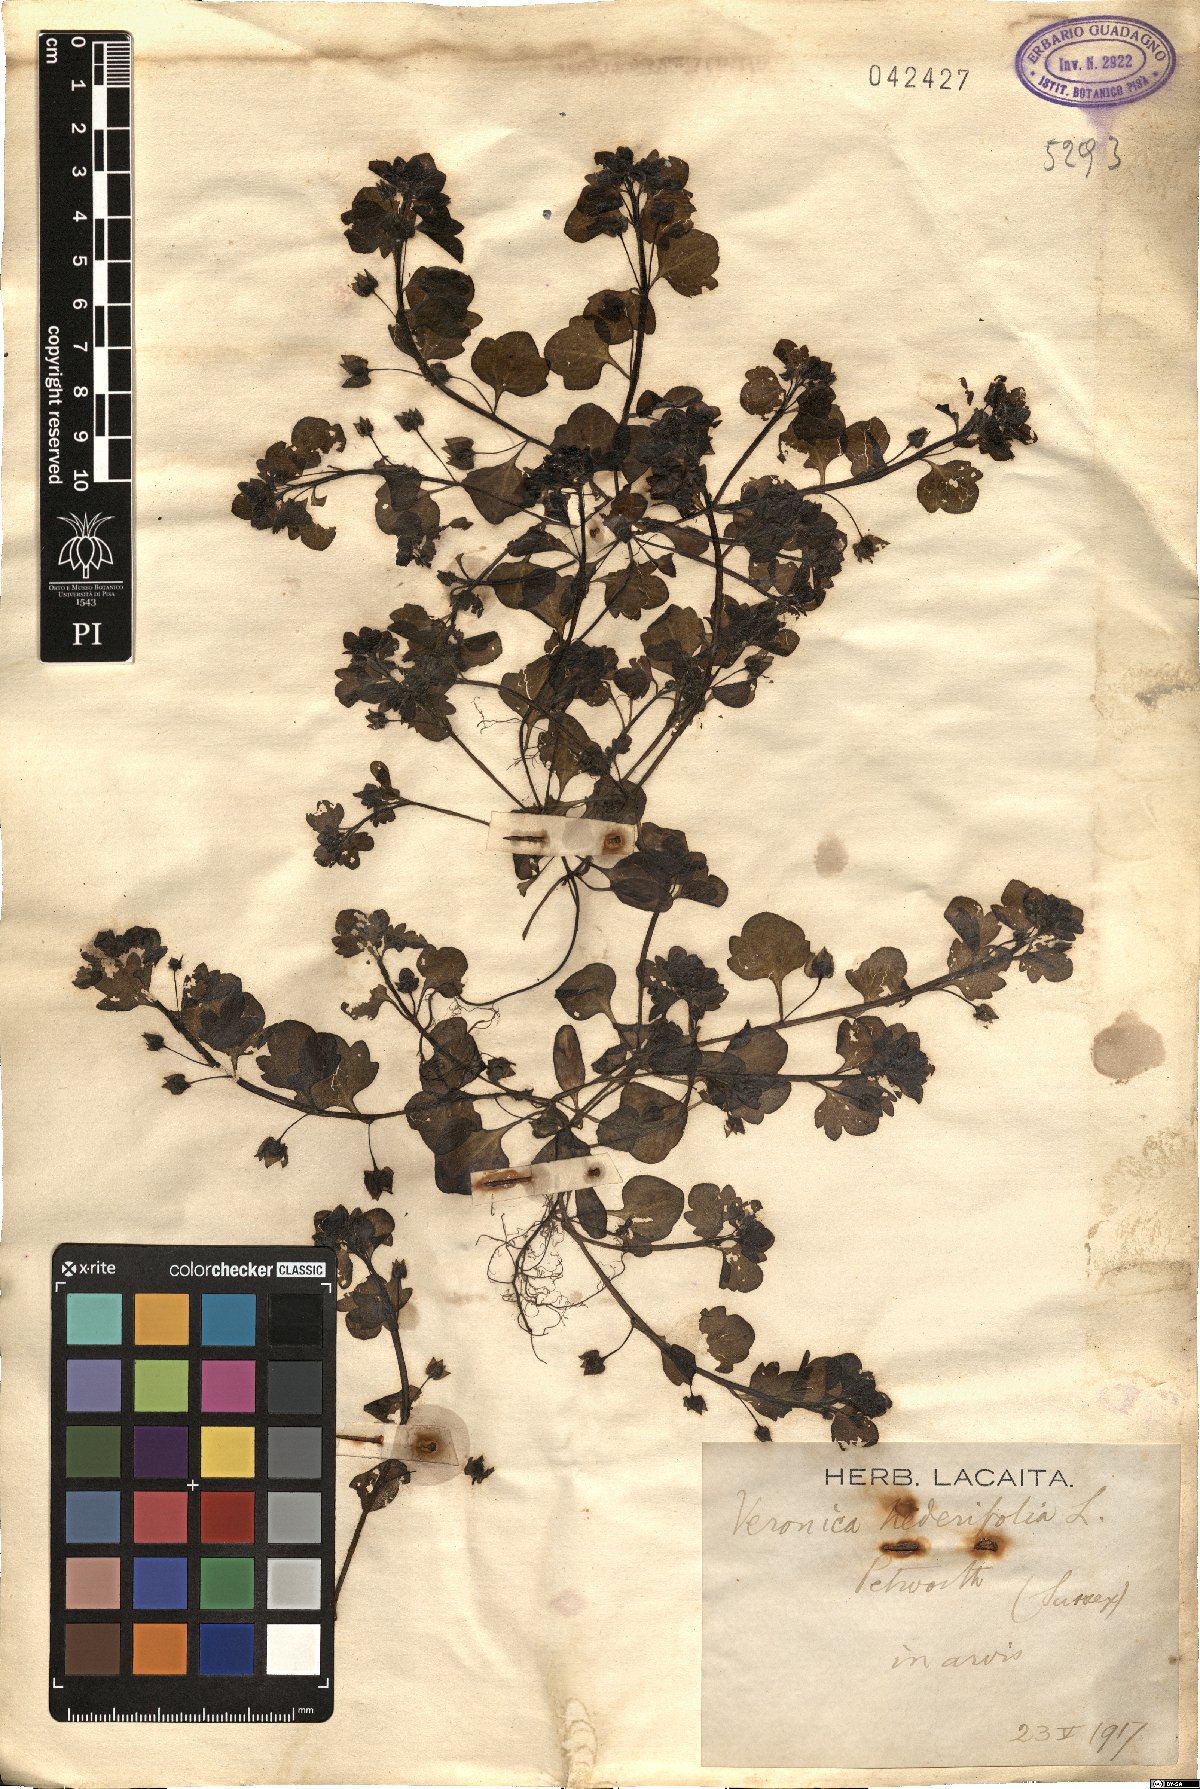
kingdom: Plantae
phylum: Tracheophyta
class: Magnoliopsida
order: Lamiales
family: Plantaginaceae
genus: Veronica
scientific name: Veronica hederifolia
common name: Ivy-leaved speedwell
